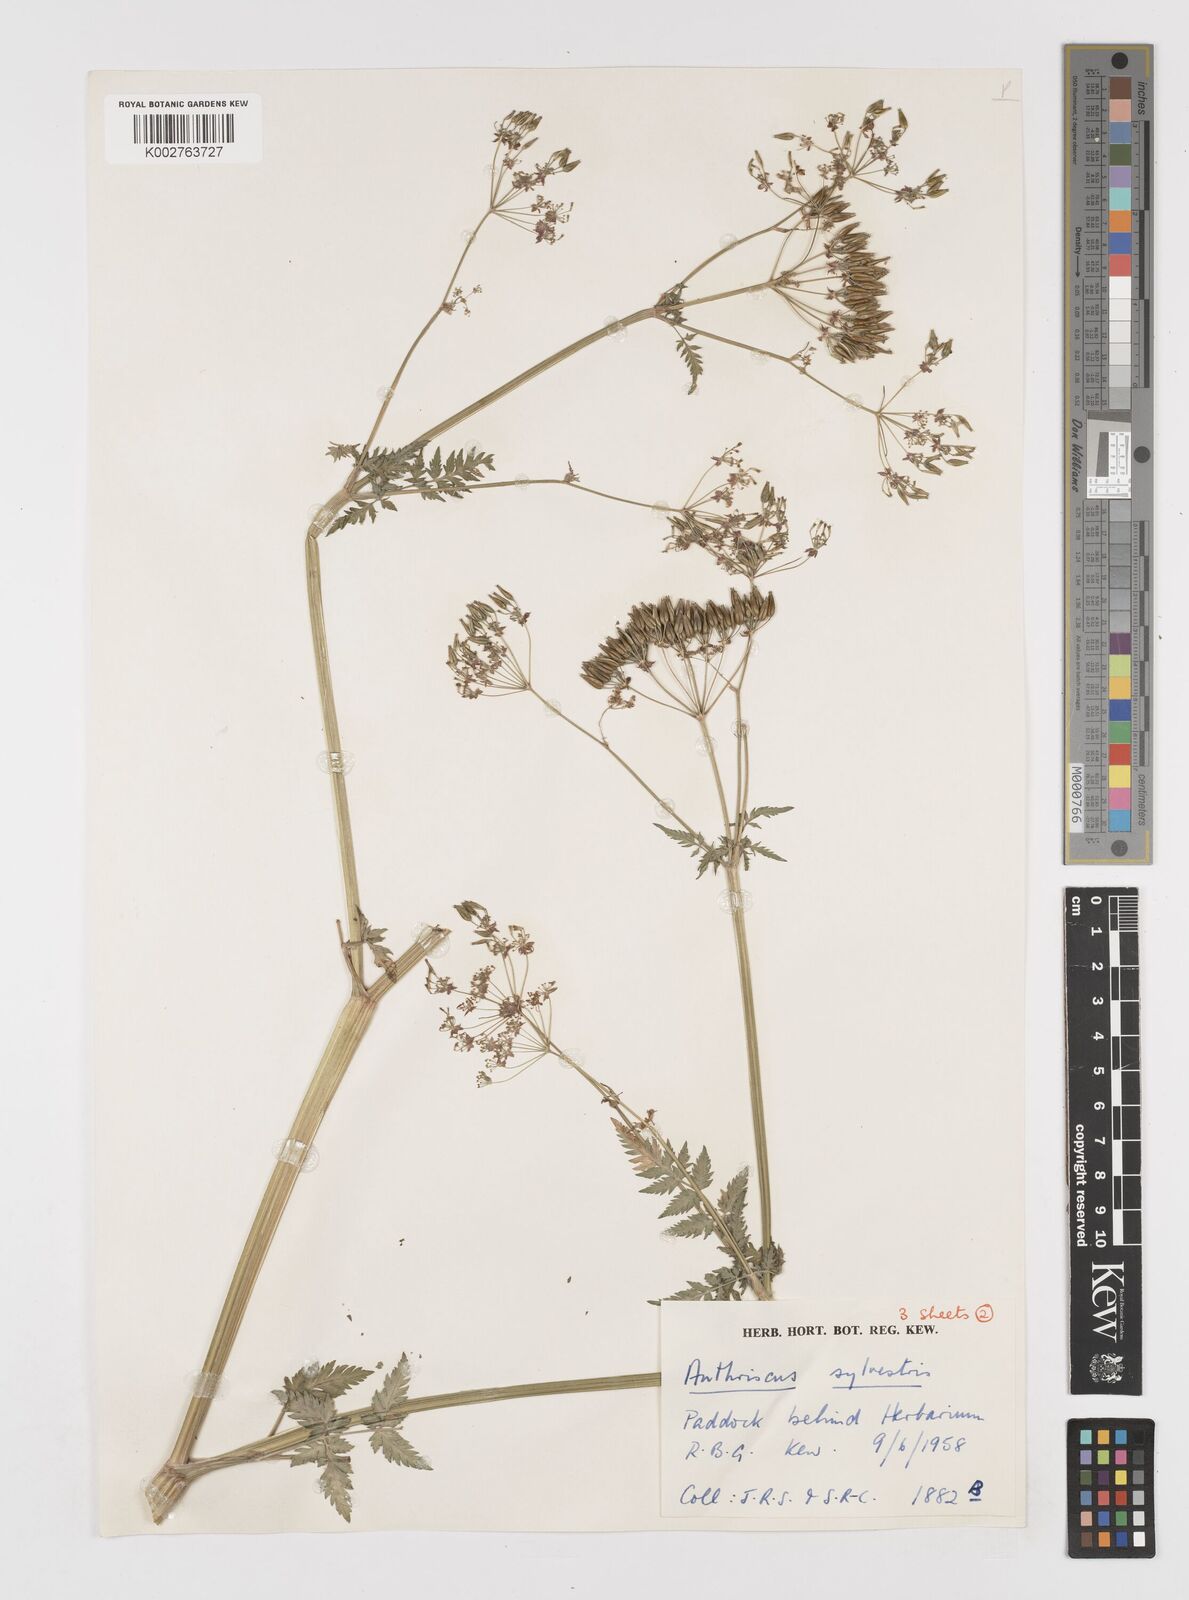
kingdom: Plantae
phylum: Tracheophyta
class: Magnoliopsida
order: Apiales
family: Apiaceae
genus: Anthriscus
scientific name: Anthriscus sylvestris
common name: Cow parsley
